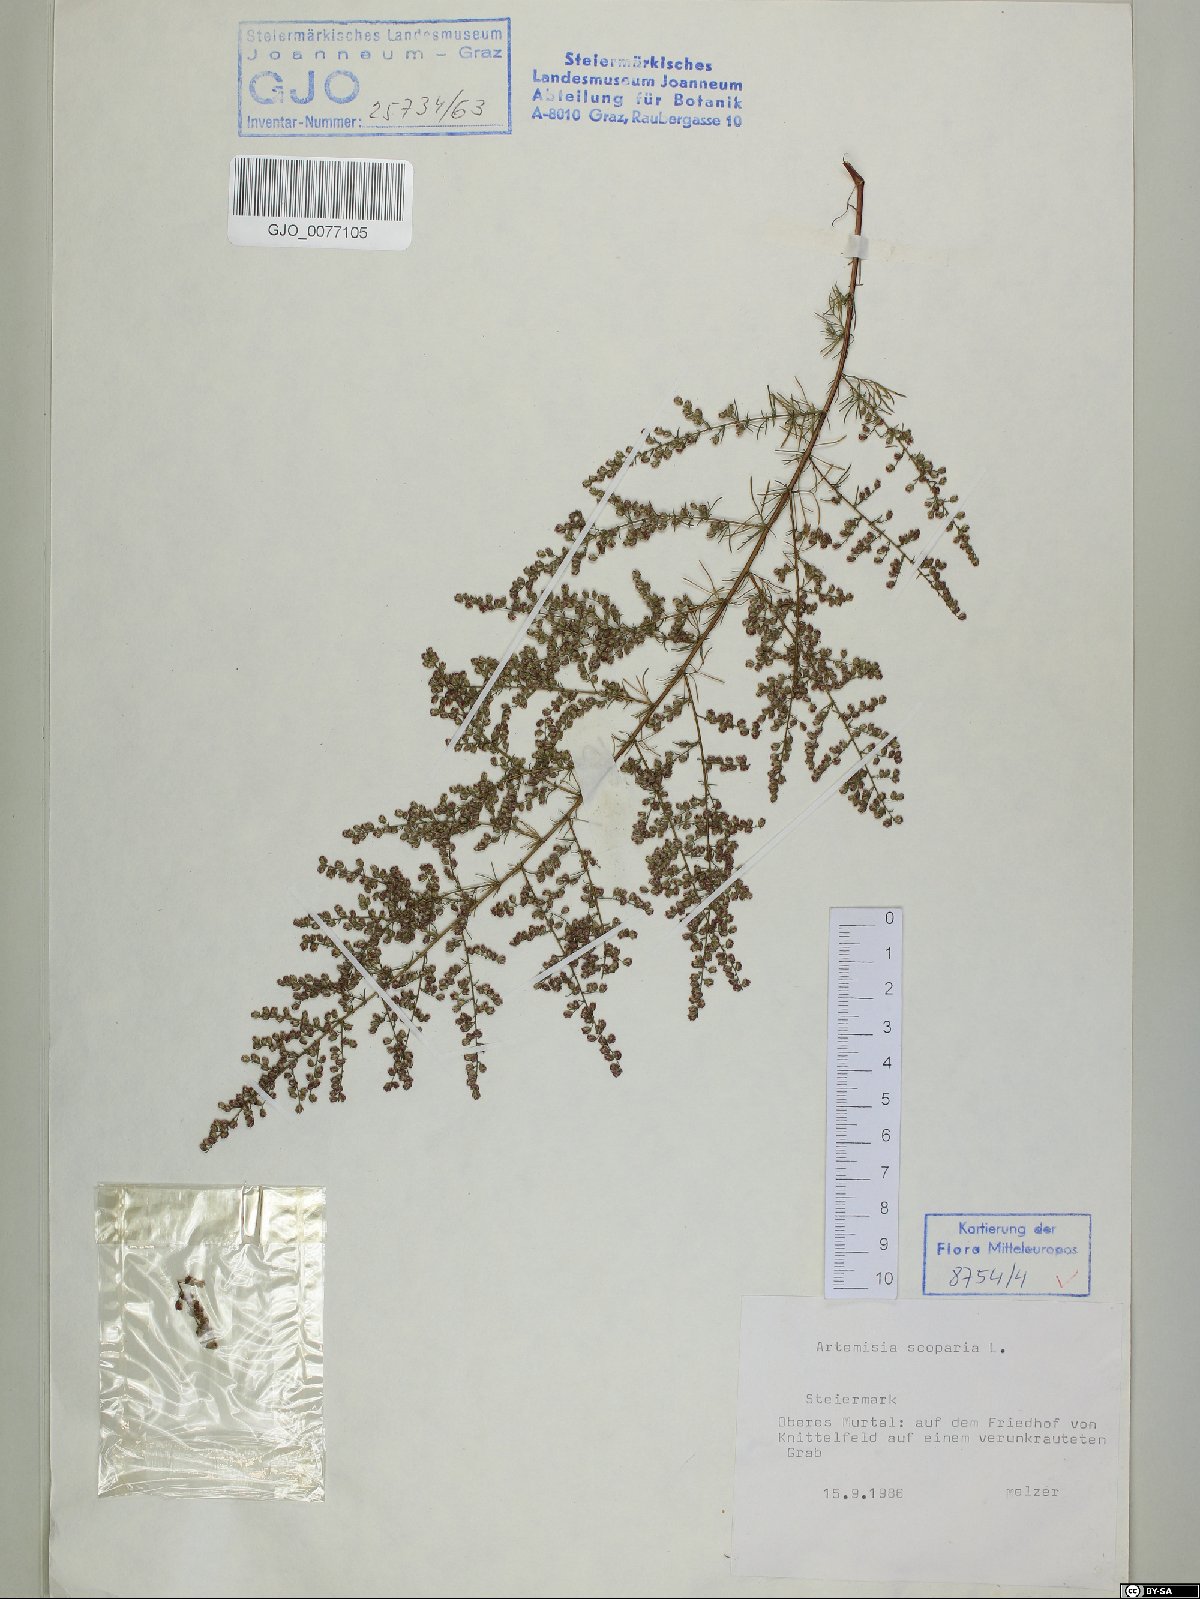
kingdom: Plantae
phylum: Tracheophyta
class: Magnoliopsida
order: Asterales
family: Asteraceae
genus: Artemisia
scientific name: Artemisia scoparia
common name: Redstem wormwood
